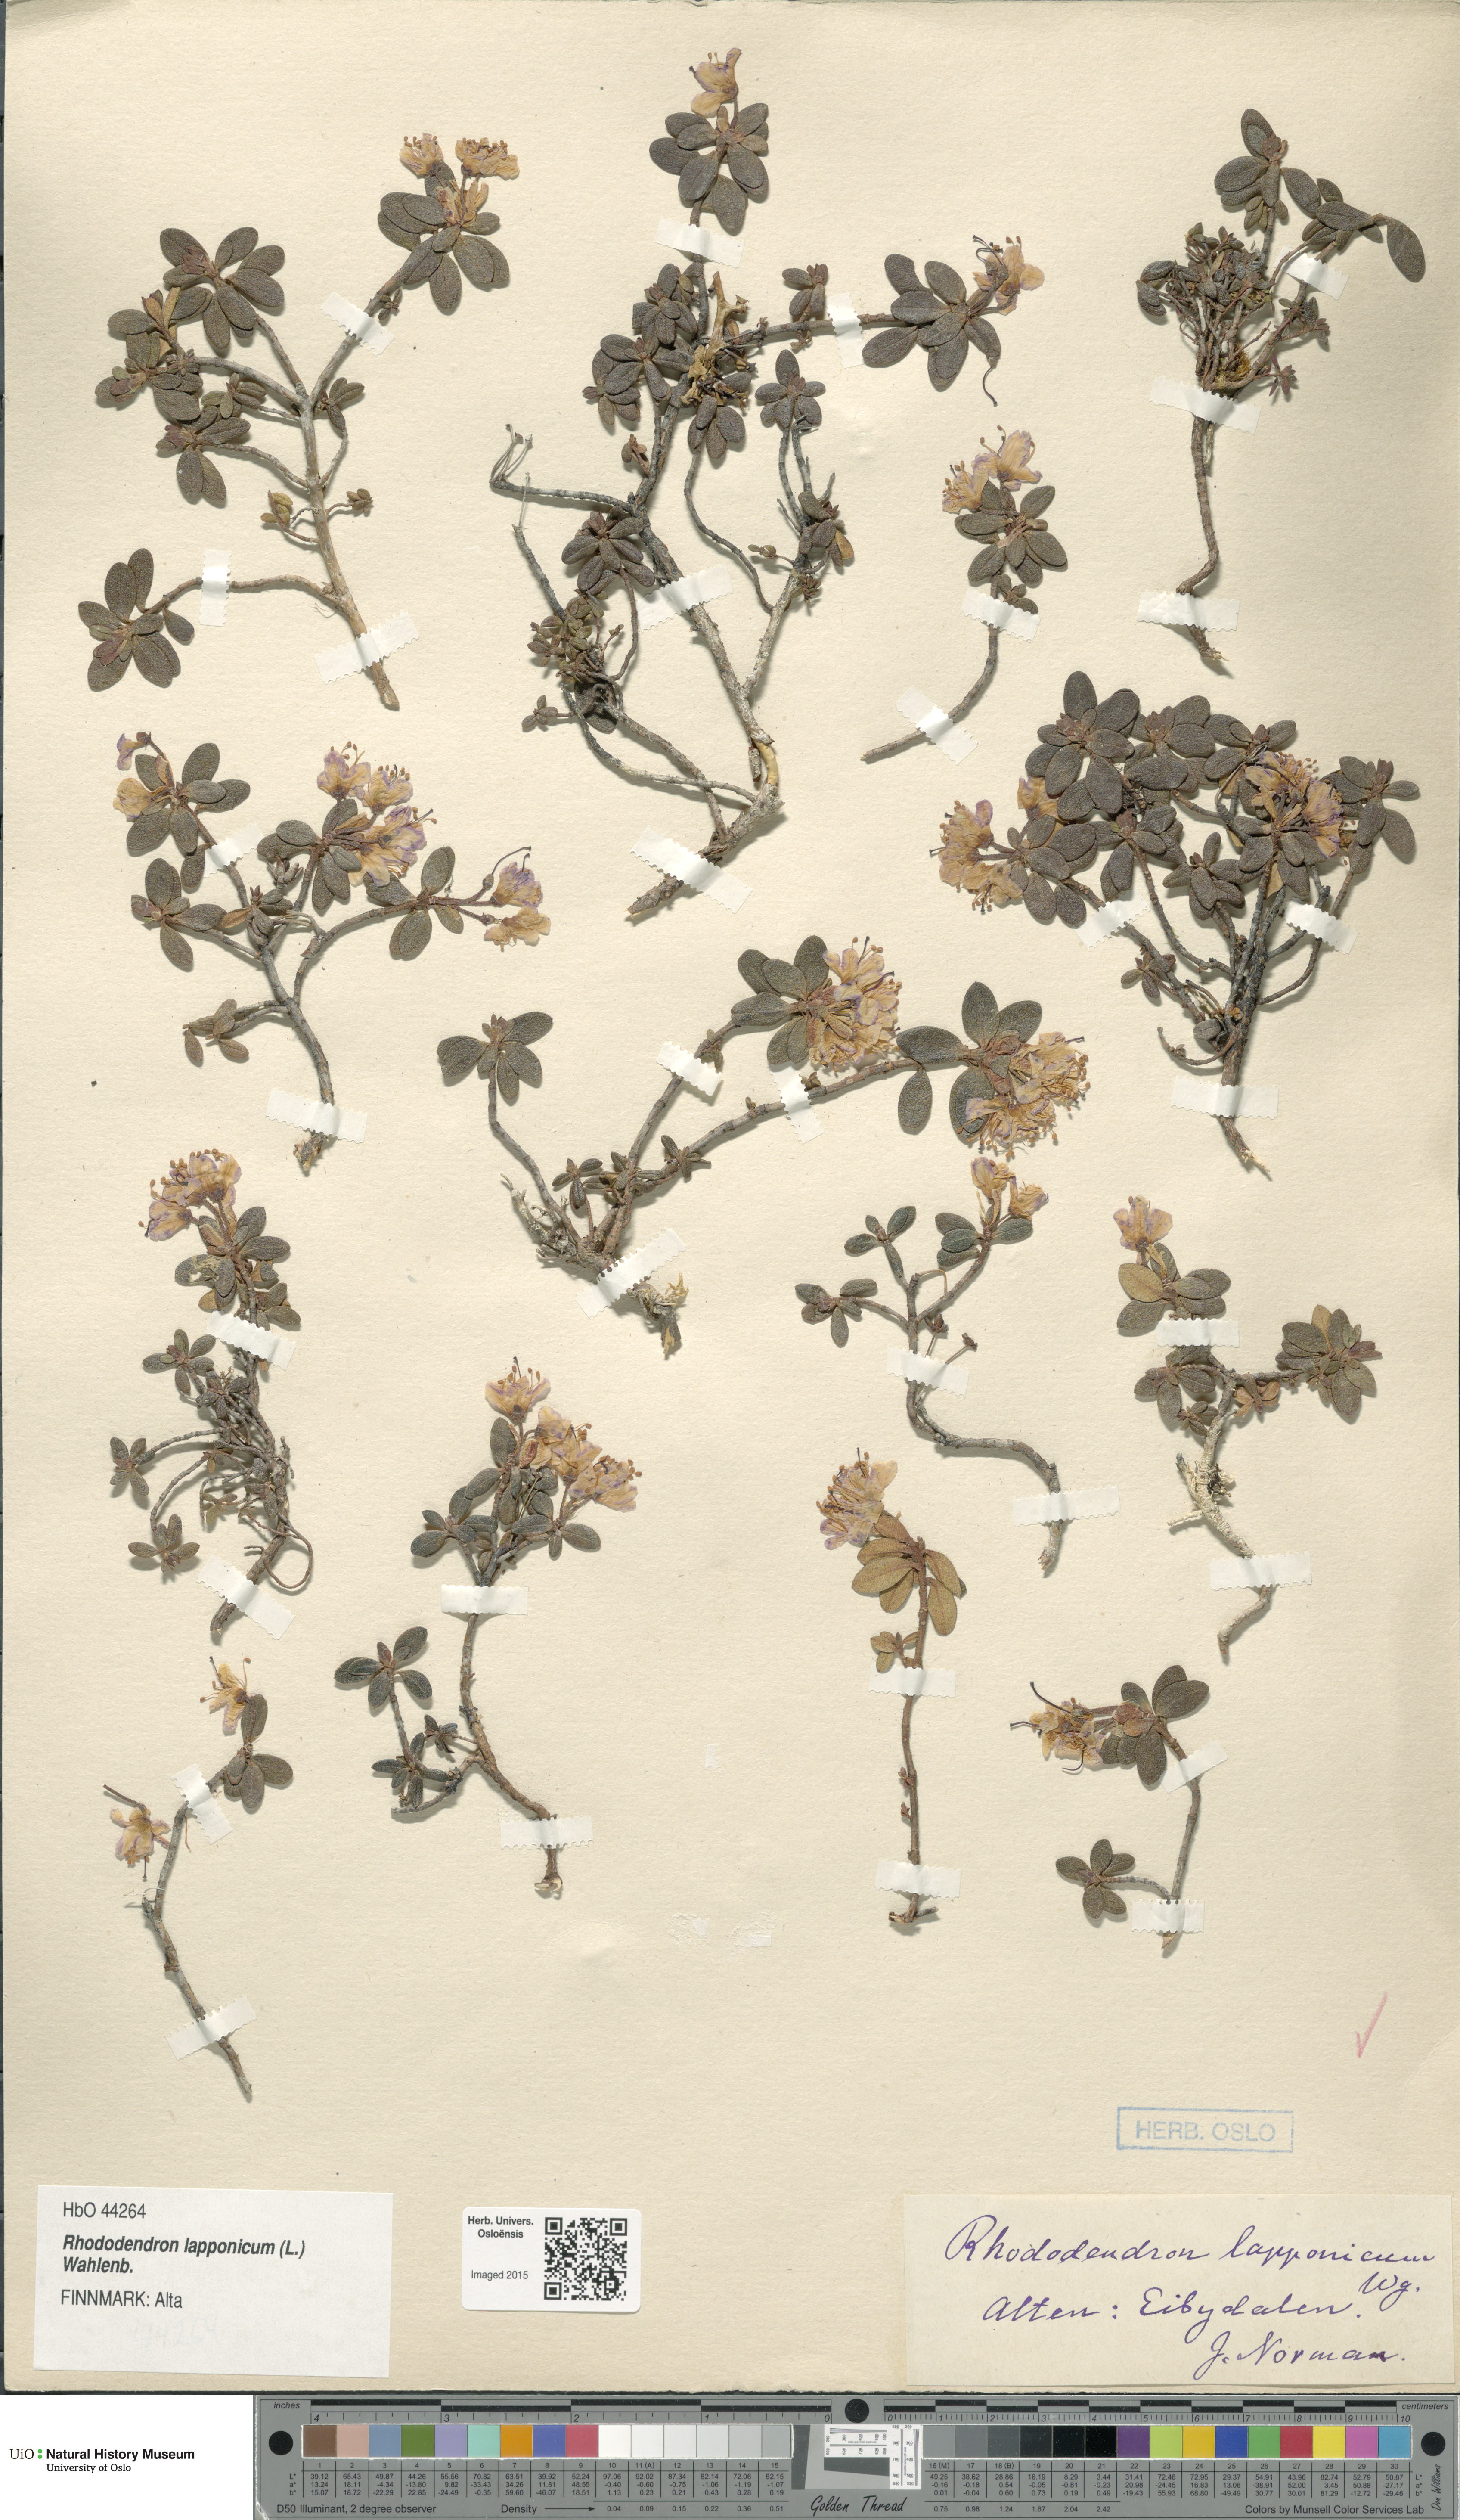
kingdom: Plantae
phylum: Tracheophyta
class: Magnoliopsida
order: Ericales
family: Ericaceae
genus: Rhododendron
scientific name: Rhododendron lapponicum
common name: Lapland rhododendron
